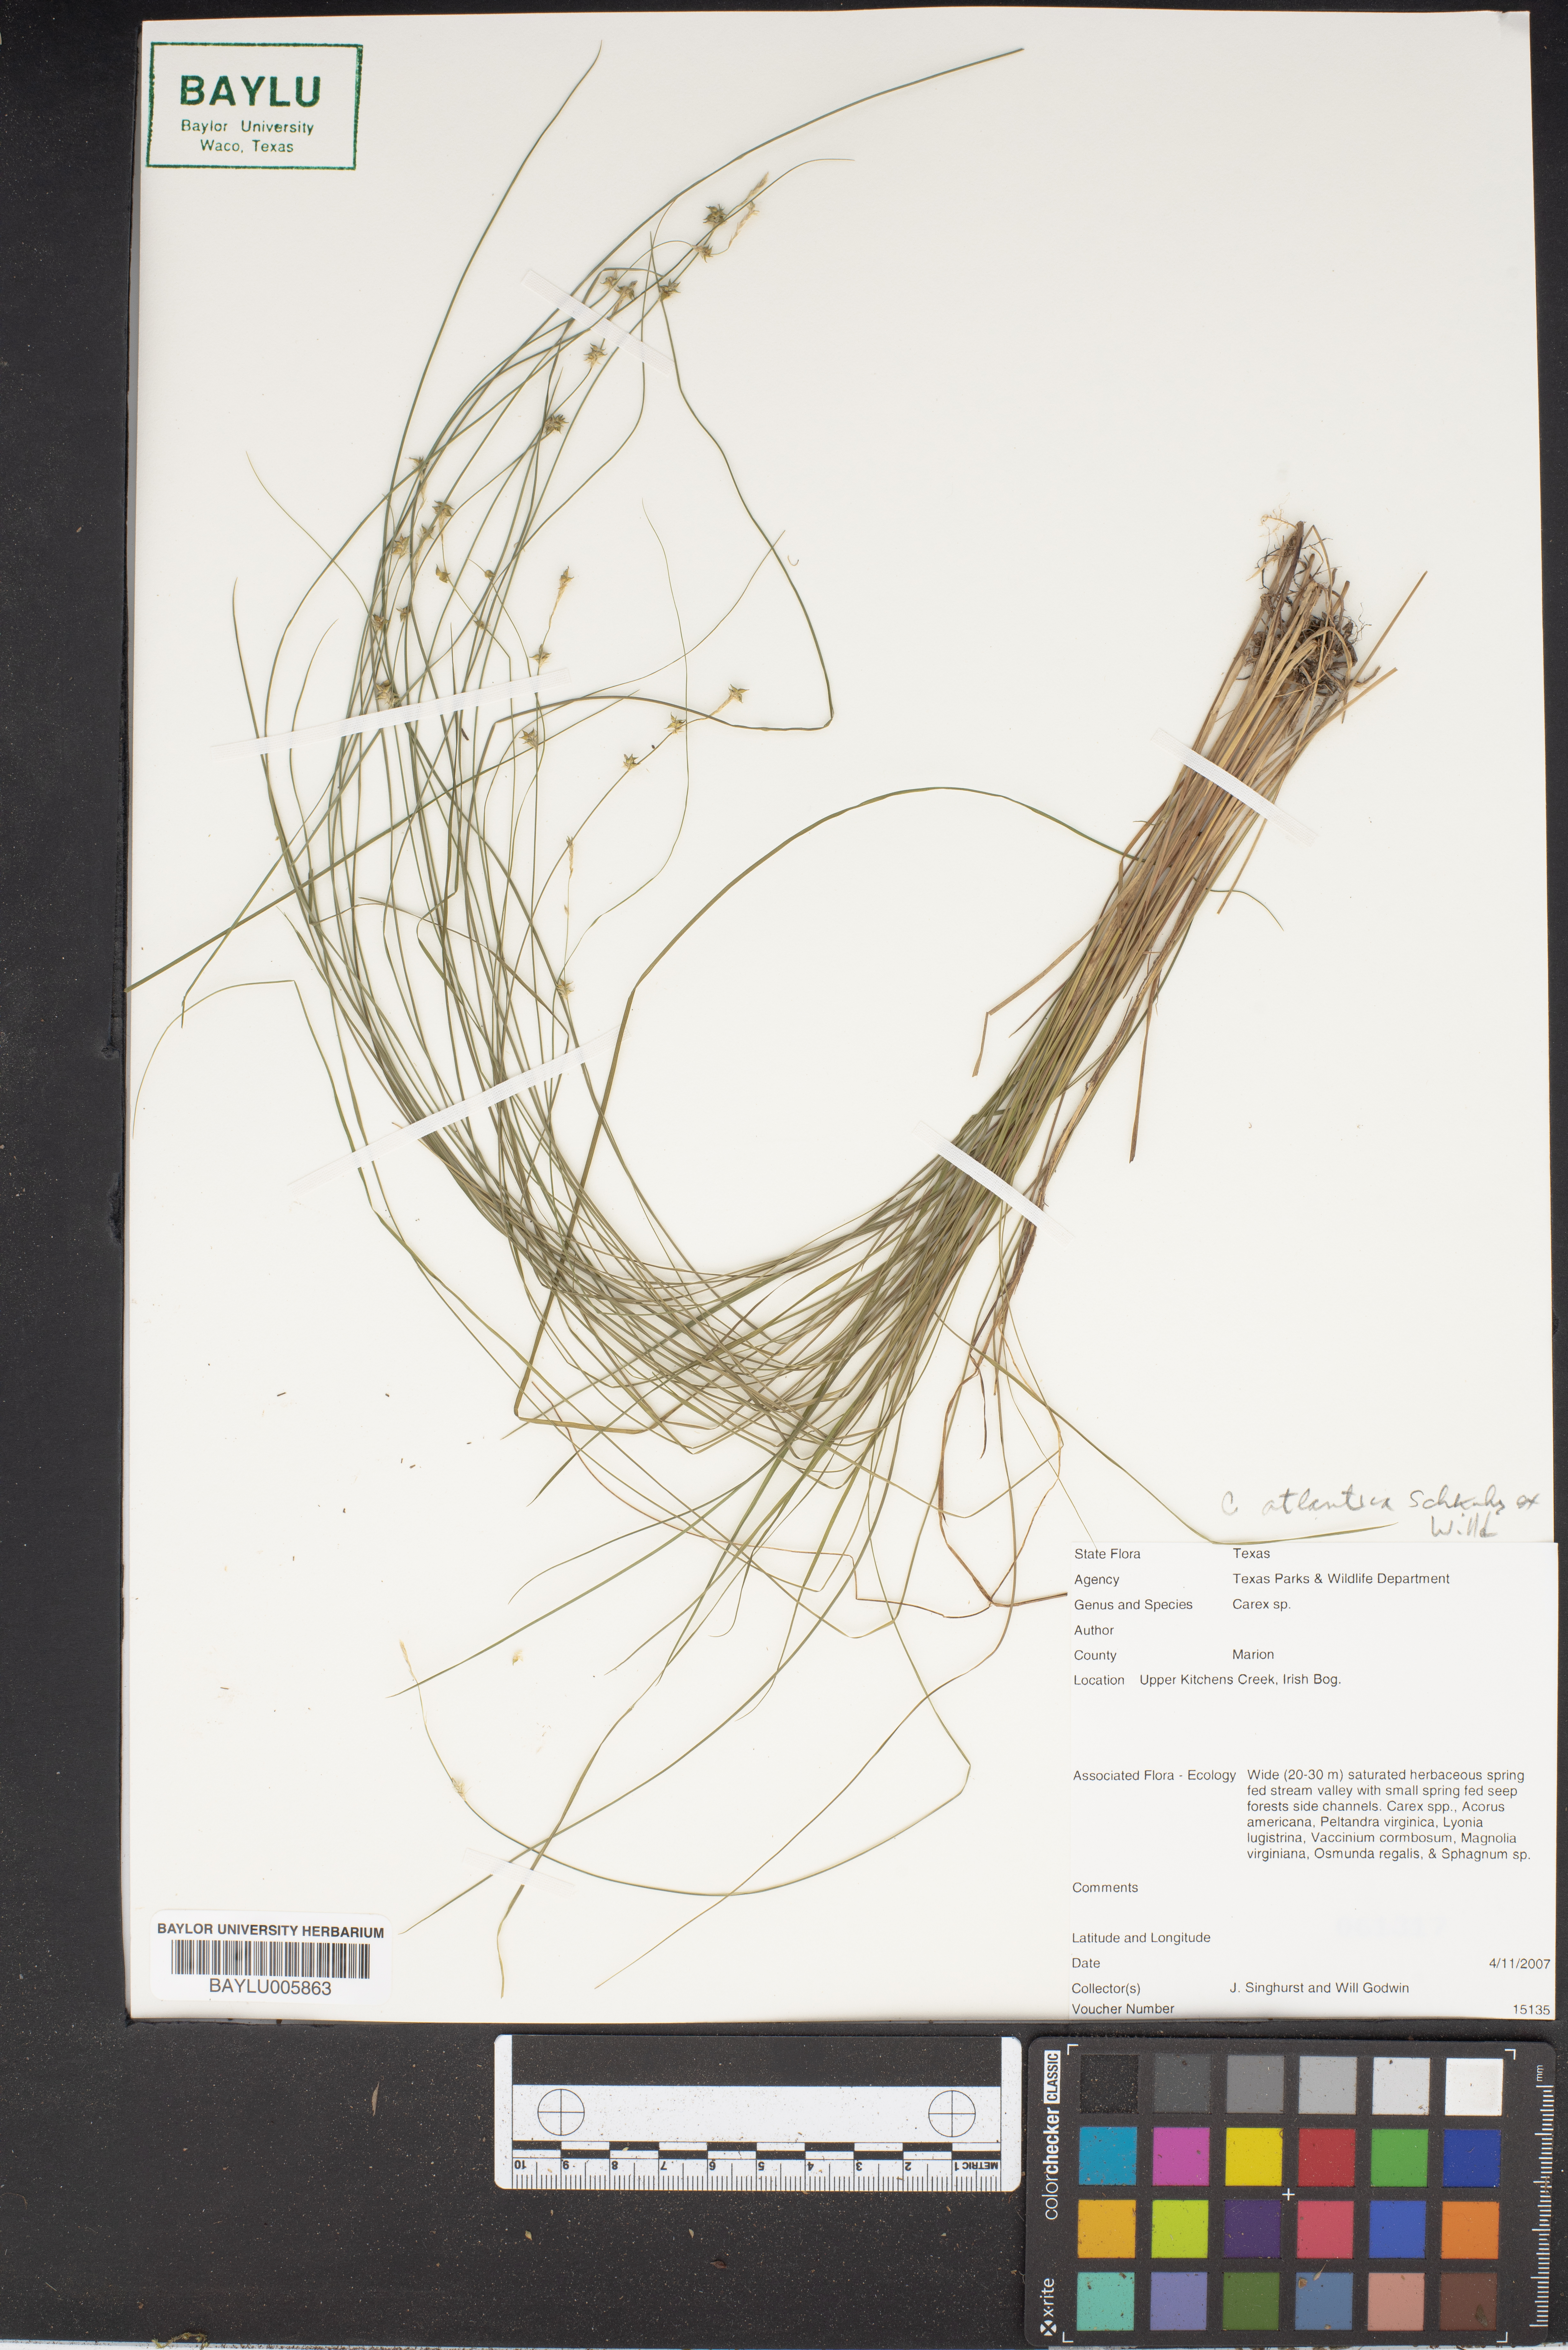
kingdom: Plantae
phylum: Tracheophyta
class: Liliopsida
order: Poales
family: Cyperaceae
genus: Carex
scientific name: Carex atlantica
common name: Atlantic sedge
